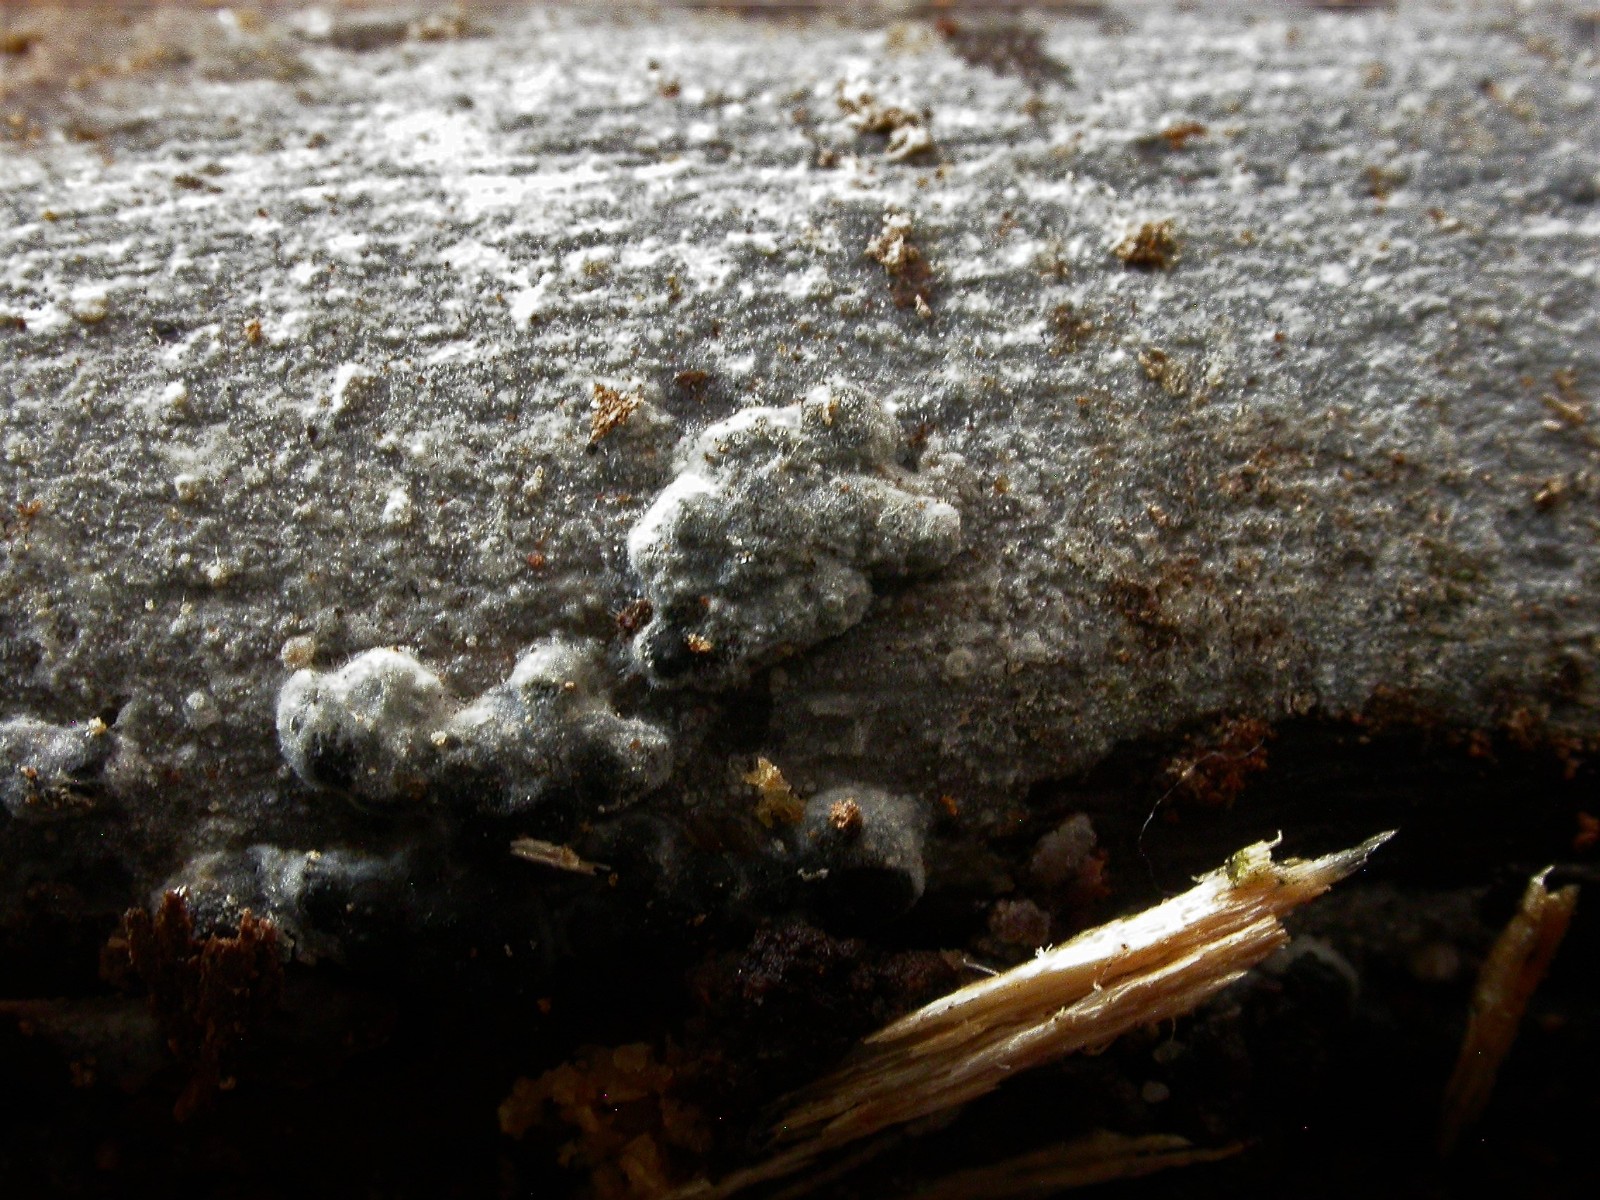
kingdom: Fungi
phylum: Basidiomycota
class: Agaricomycetes
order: Polyporales
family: Meruliaceae
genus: Scopuloides
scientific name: Scopuloides rimosa
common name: dughinde
